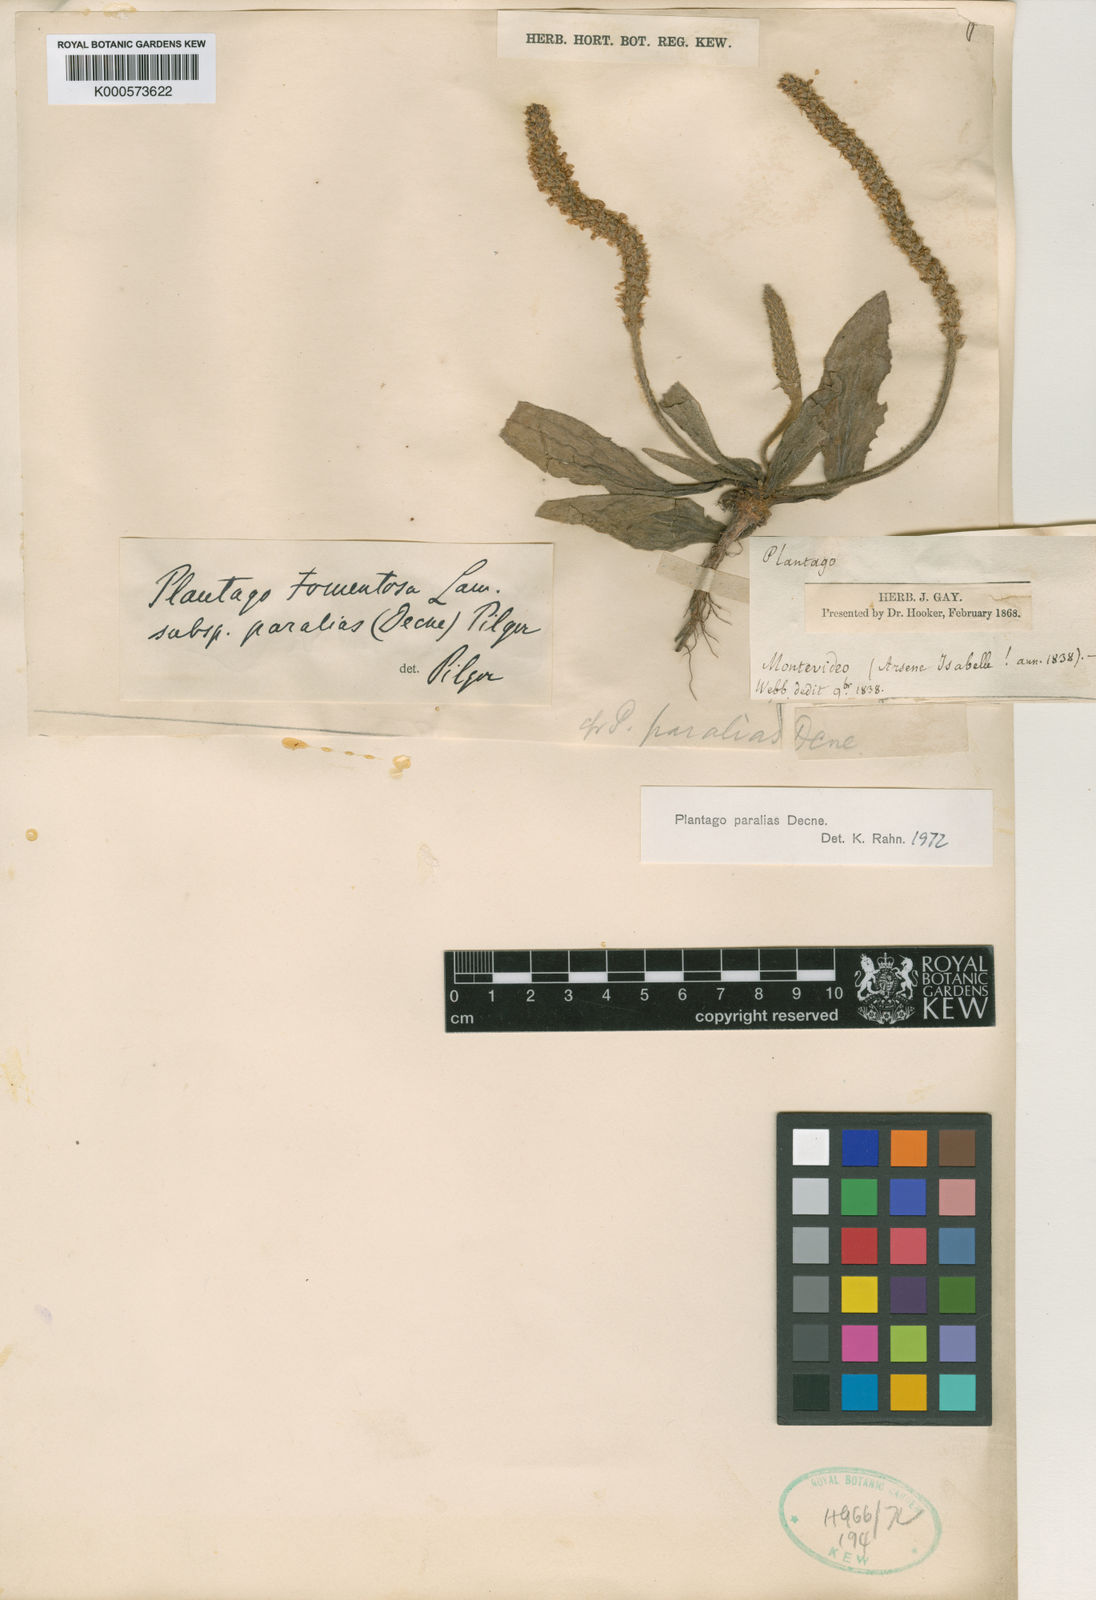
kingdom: Plantae
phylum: Tracheophyta
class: Magnoliopsida
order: Lamiales
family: Plantaginaceae
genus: Plantago
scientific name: Plantago tomentosa
